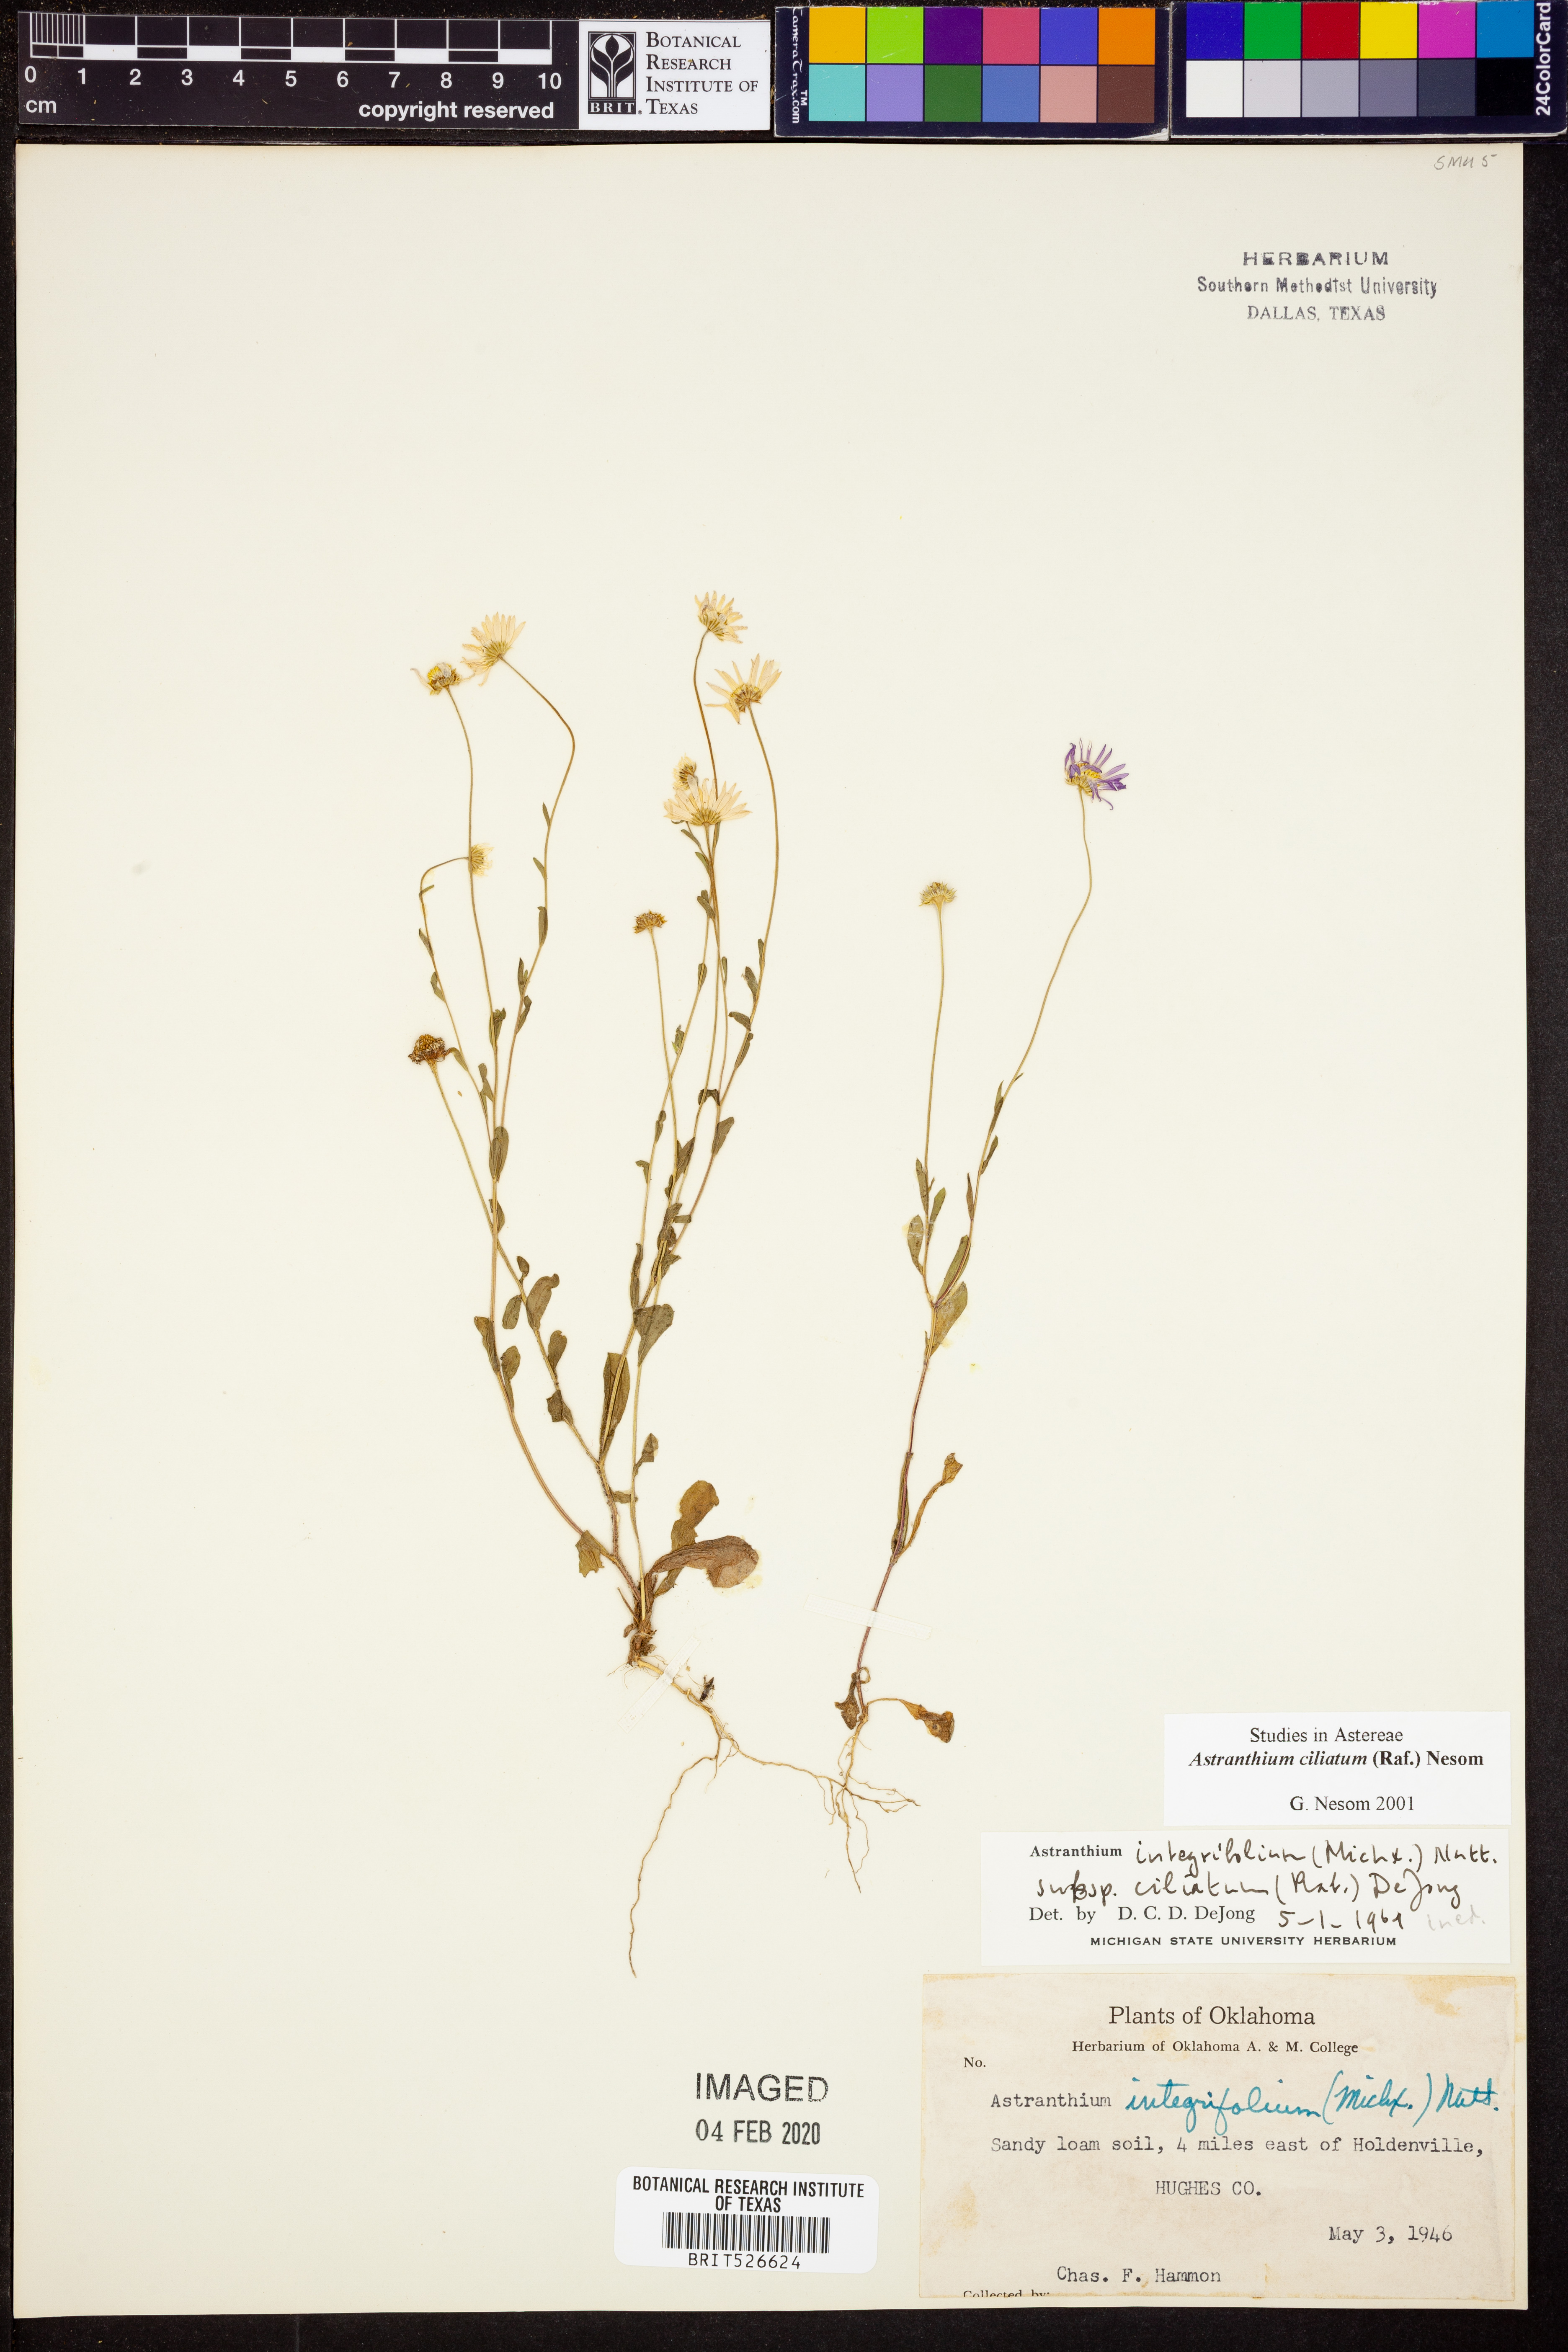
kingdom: Plantae
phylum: Tracheophyta
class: Magnoliopsida
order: Asterales
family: Asteraceae
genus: Astranthium
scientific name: Astranthium ciliatum
